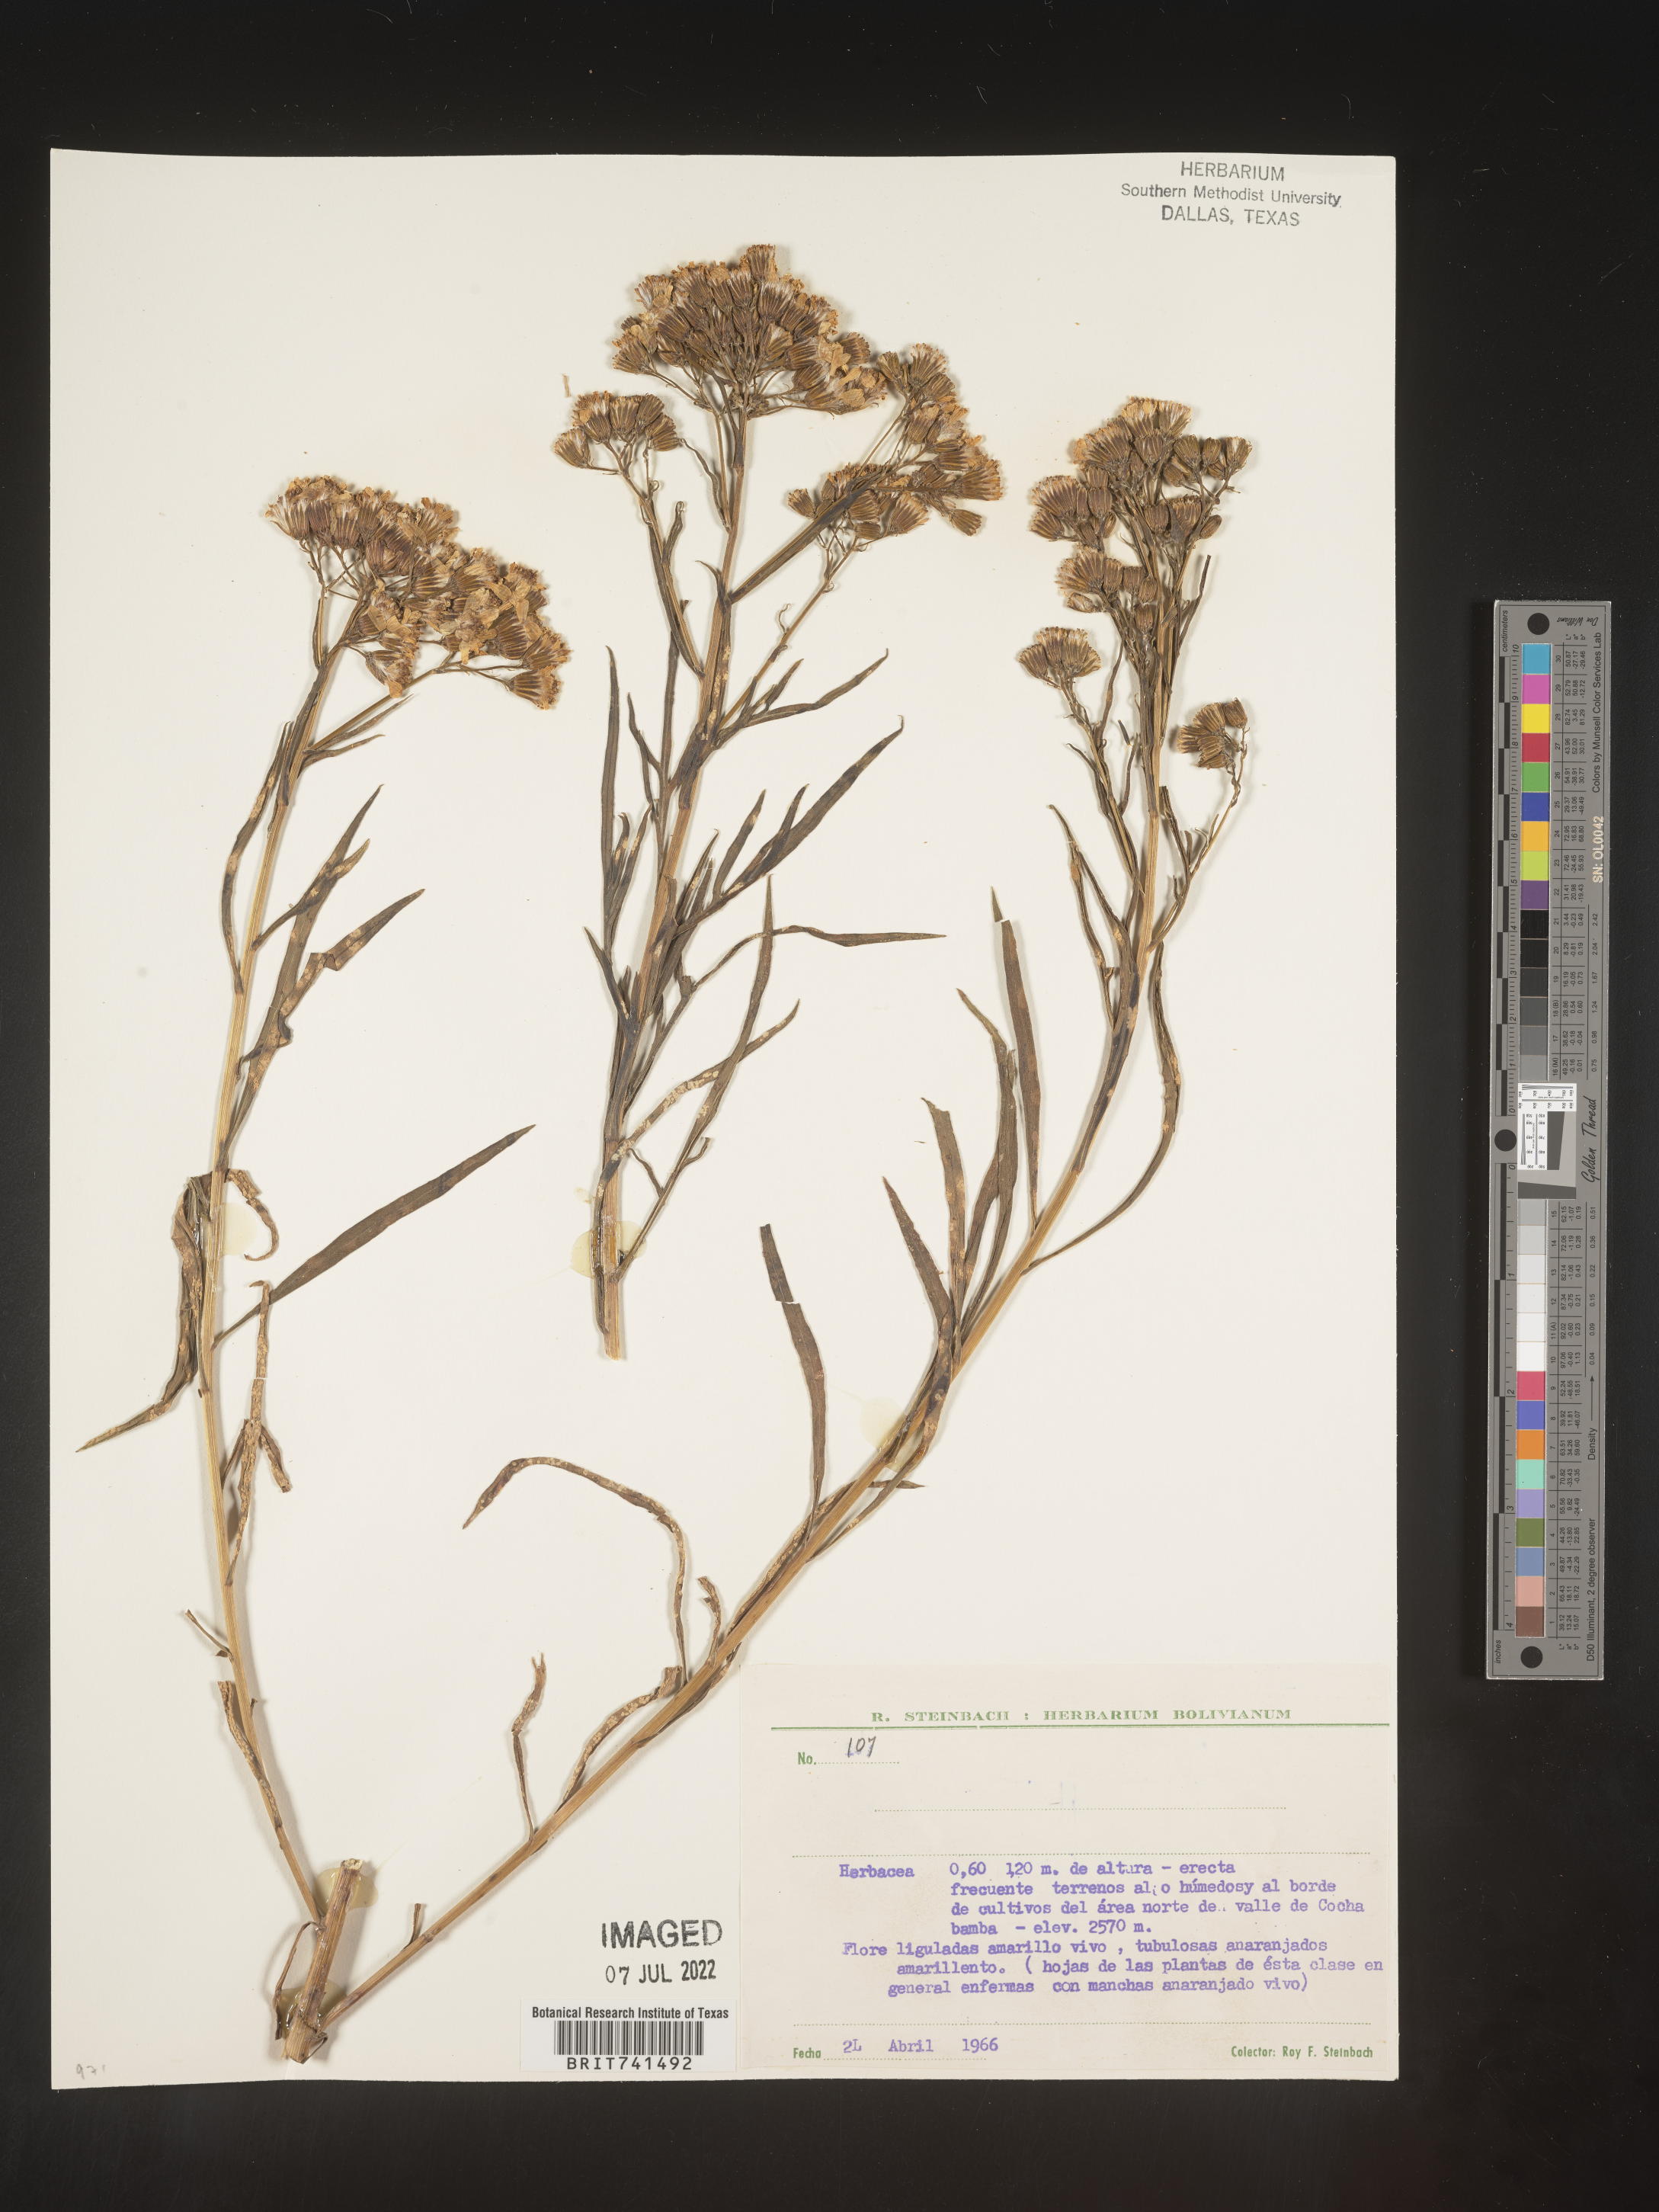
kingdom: Plantae
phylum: Tracheophyta
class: Magnoliopsida
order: Asterales
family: Asteraceae
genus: Senecio
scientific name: Senecio
